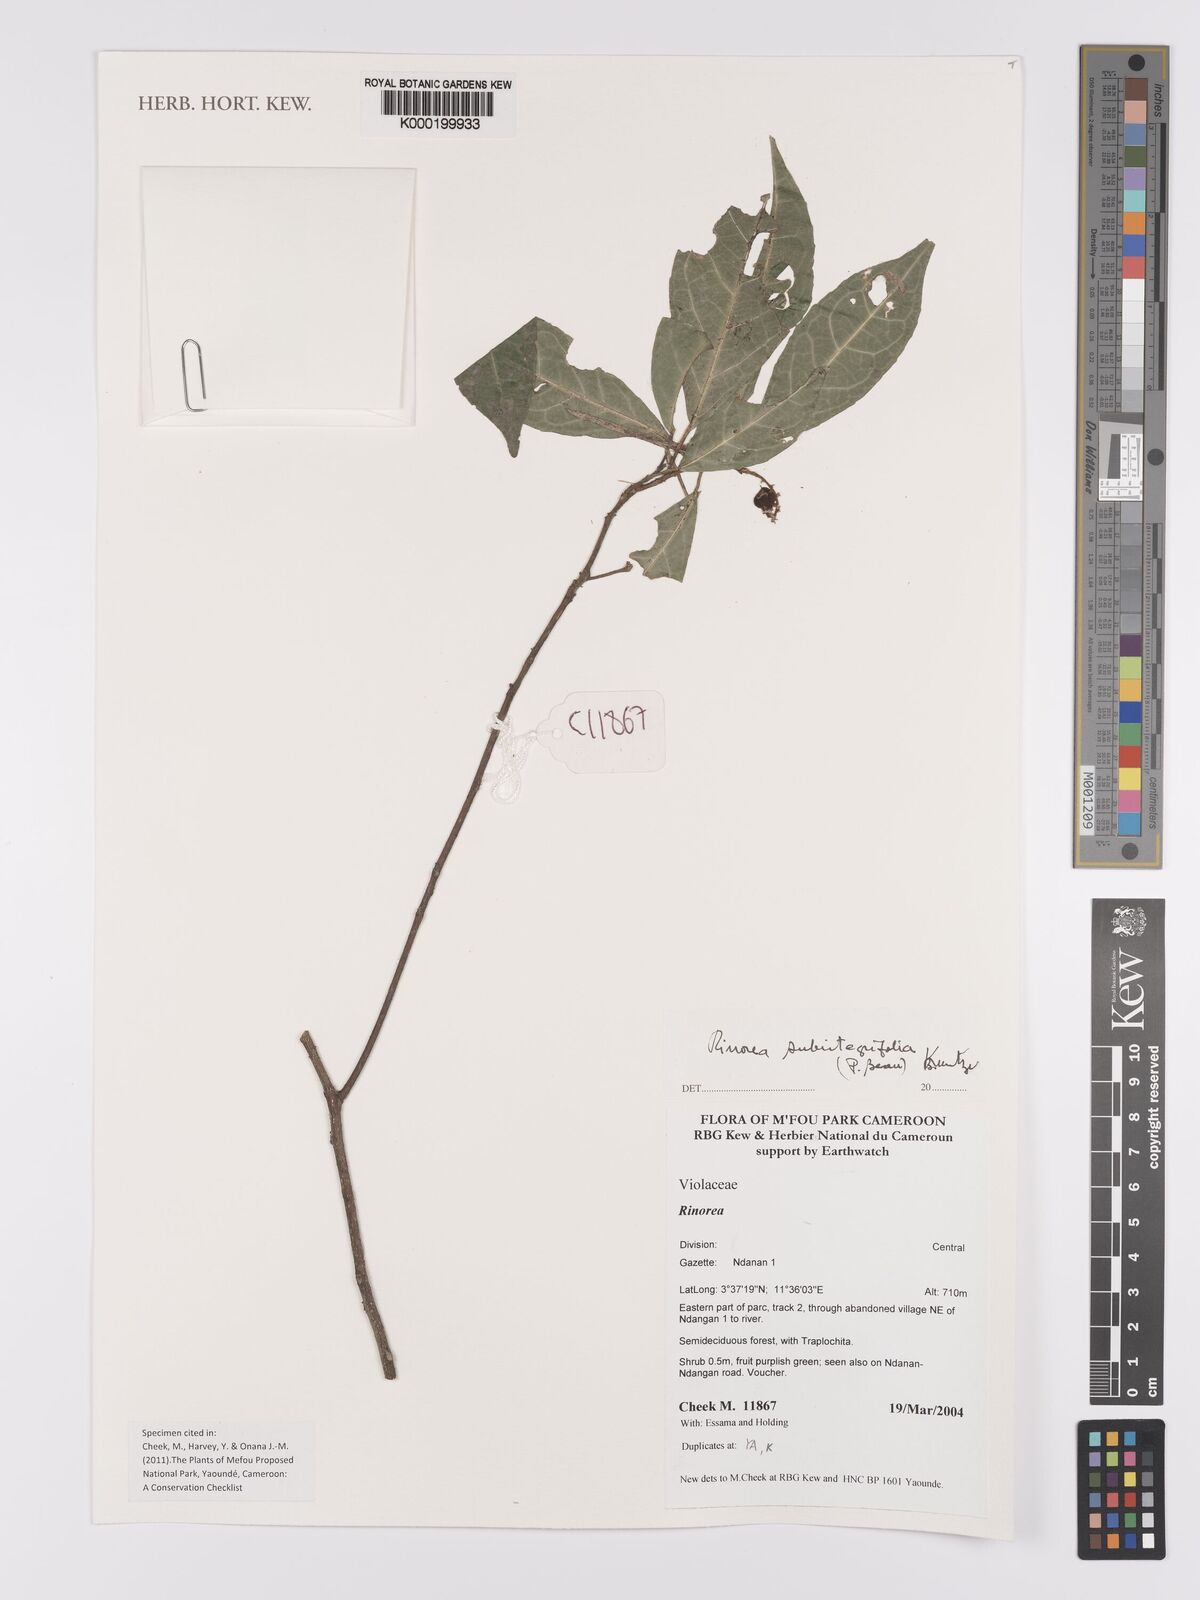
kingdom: Plantae
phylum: Tracheophyta
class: Magnoliopsida
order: Malpighiales
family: Violaceae
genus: Rinorea
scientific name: Rinorea subintegrifolia
